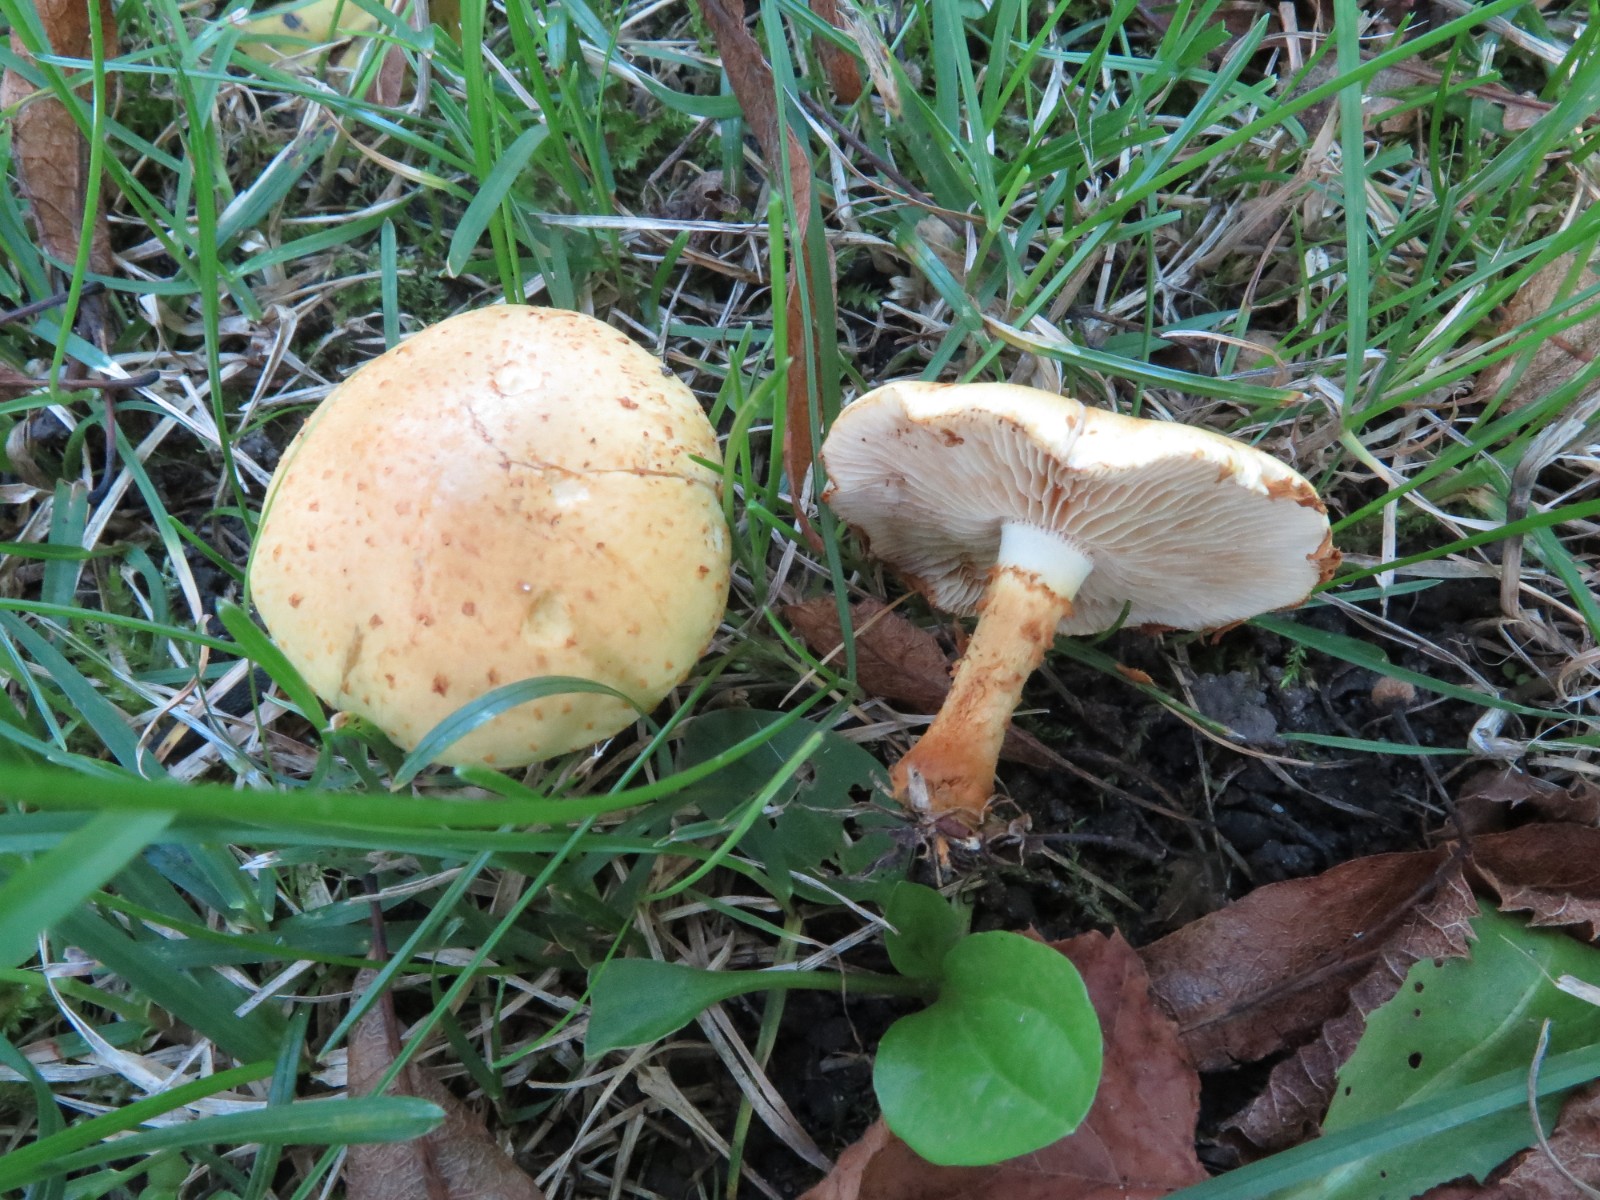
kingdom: Fungi
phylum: Basidiomycota
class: Agaricomycetes
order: Agaricales
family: Hymenogastraceae
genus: Gymnopilus
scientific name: Gymnopilus spectabilis
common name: fibret flammehat
